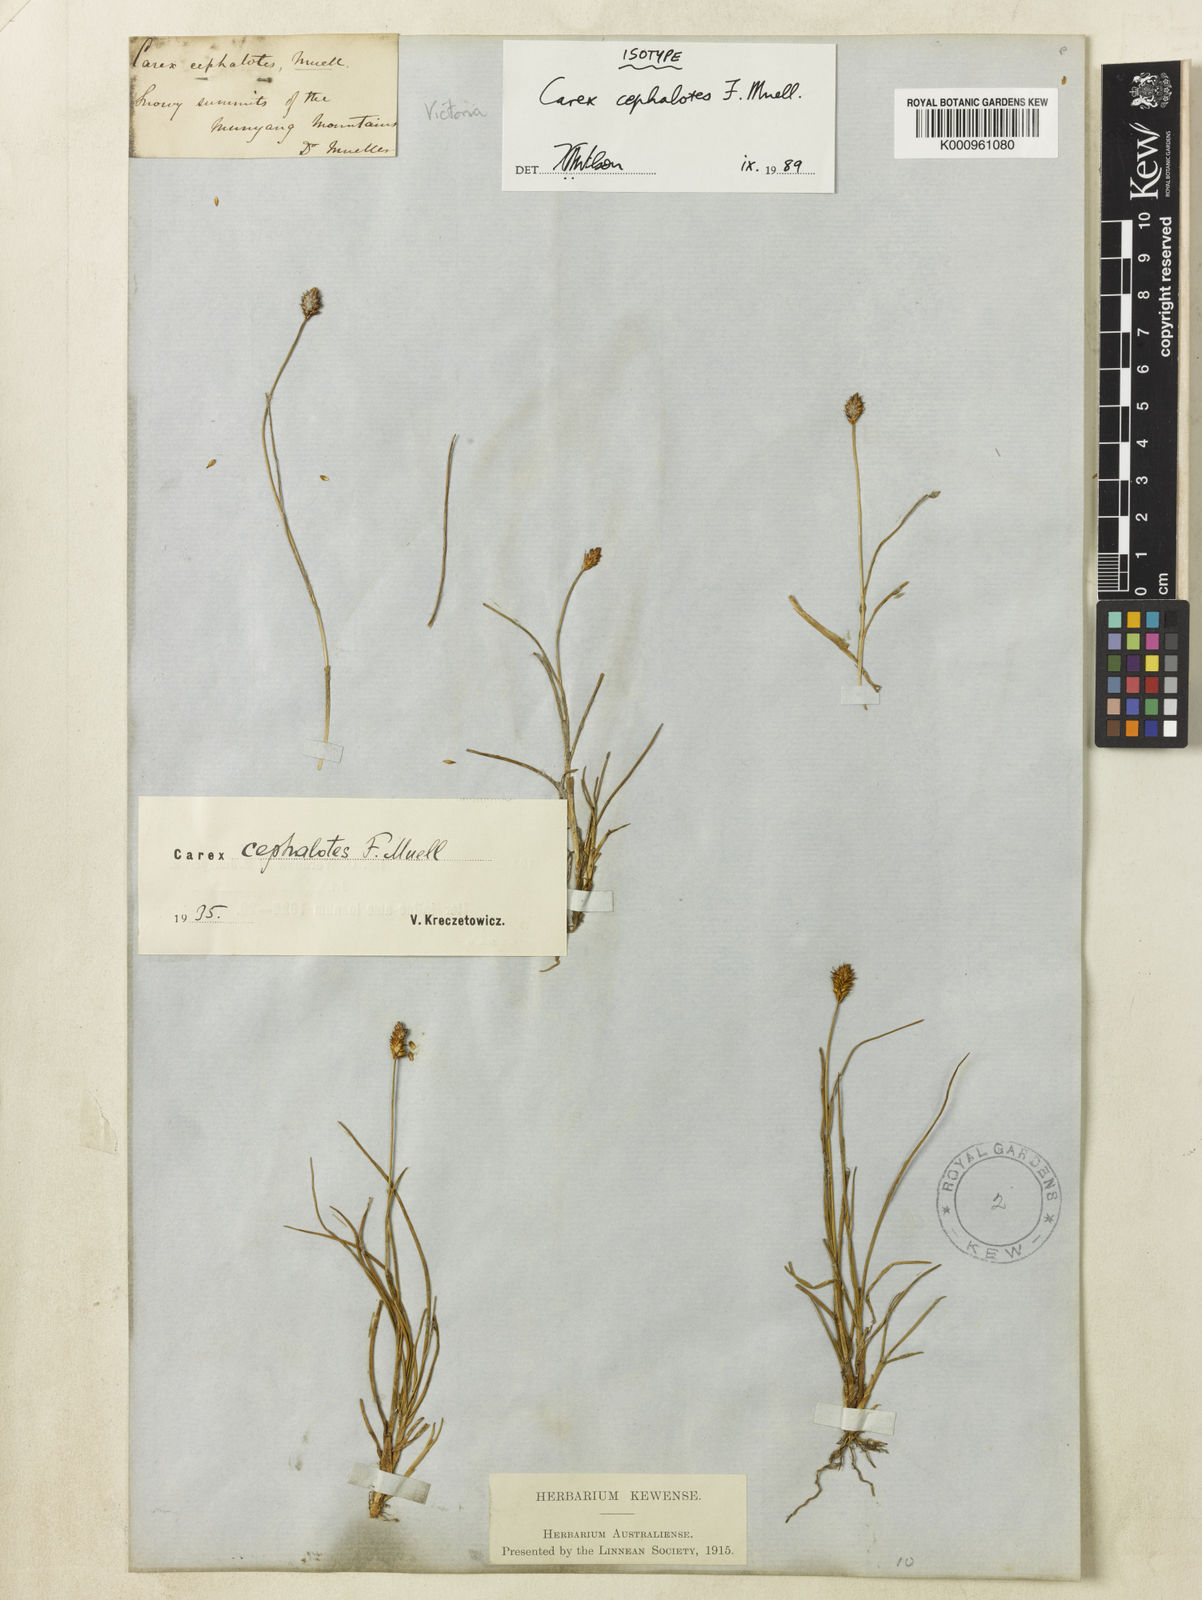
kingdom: Plantae
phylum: Tracheophyta
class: Liliopsida
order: Poales
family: Cyperaceae
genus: Carex
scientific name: Carex cephalotes
